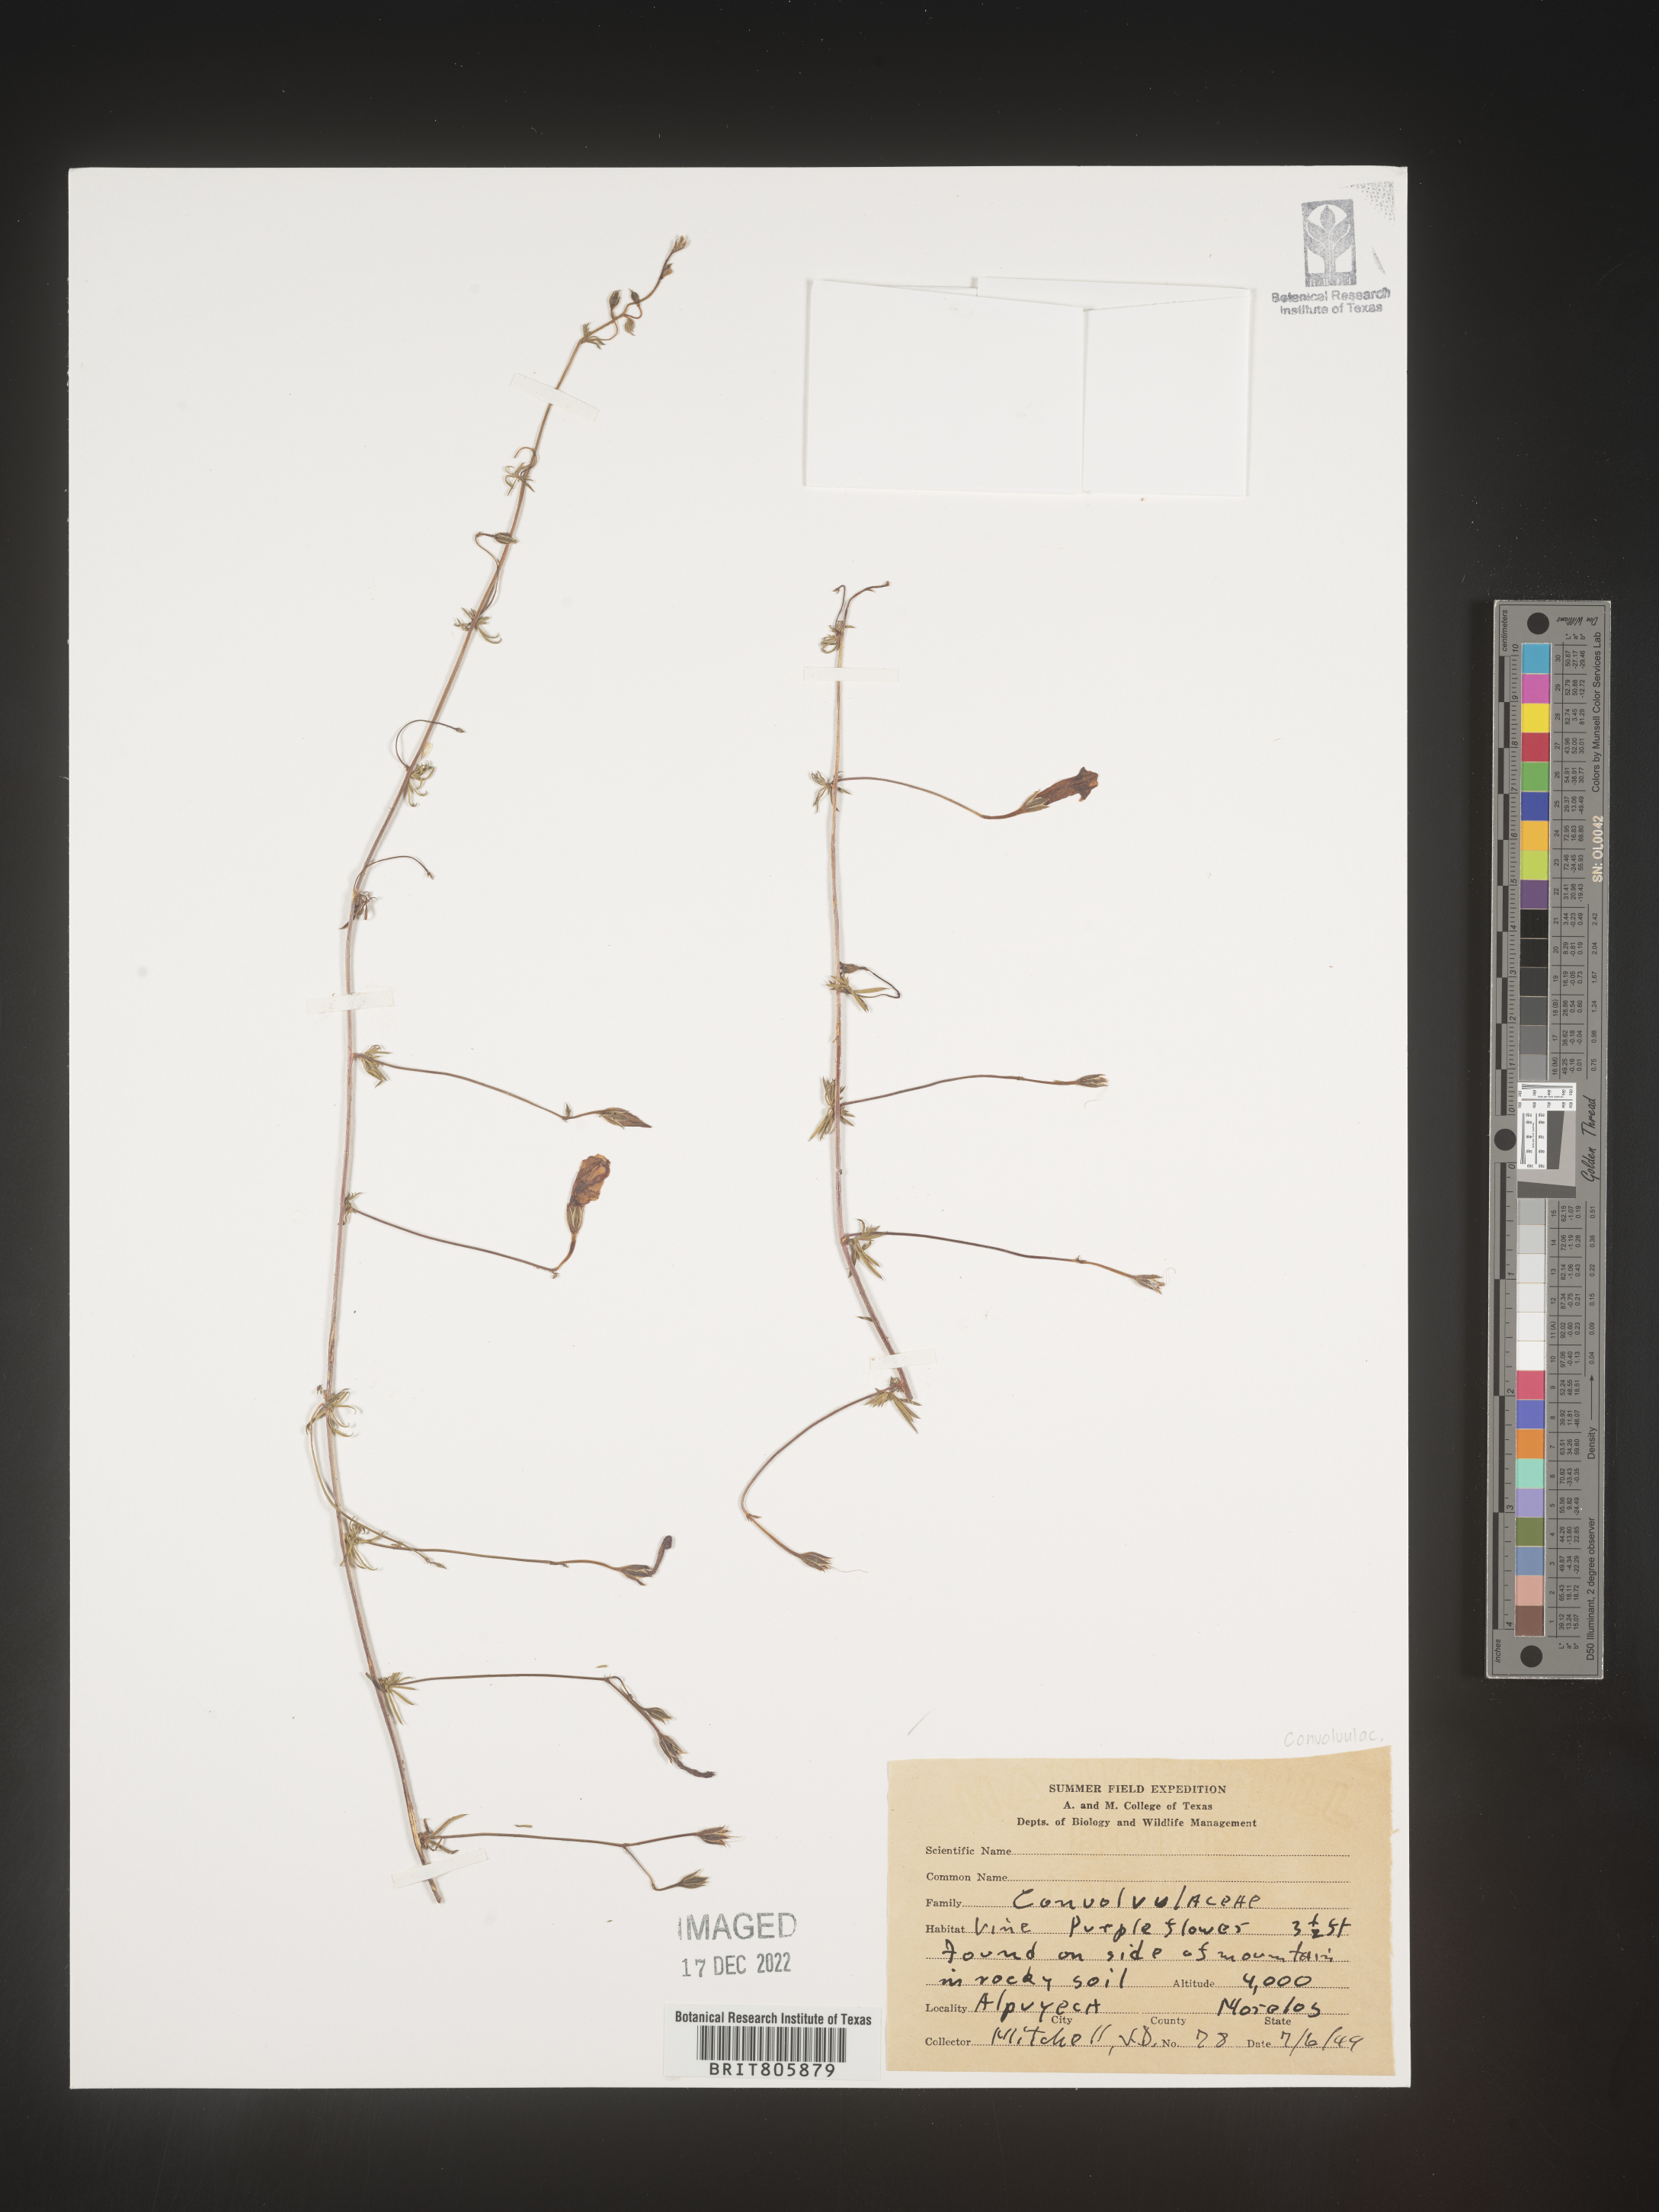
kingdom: Plantae
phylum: Tracheophyta
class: Magnoliopsida
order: Solanales
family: Convolvulaceae
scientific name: Convolvulaceae
